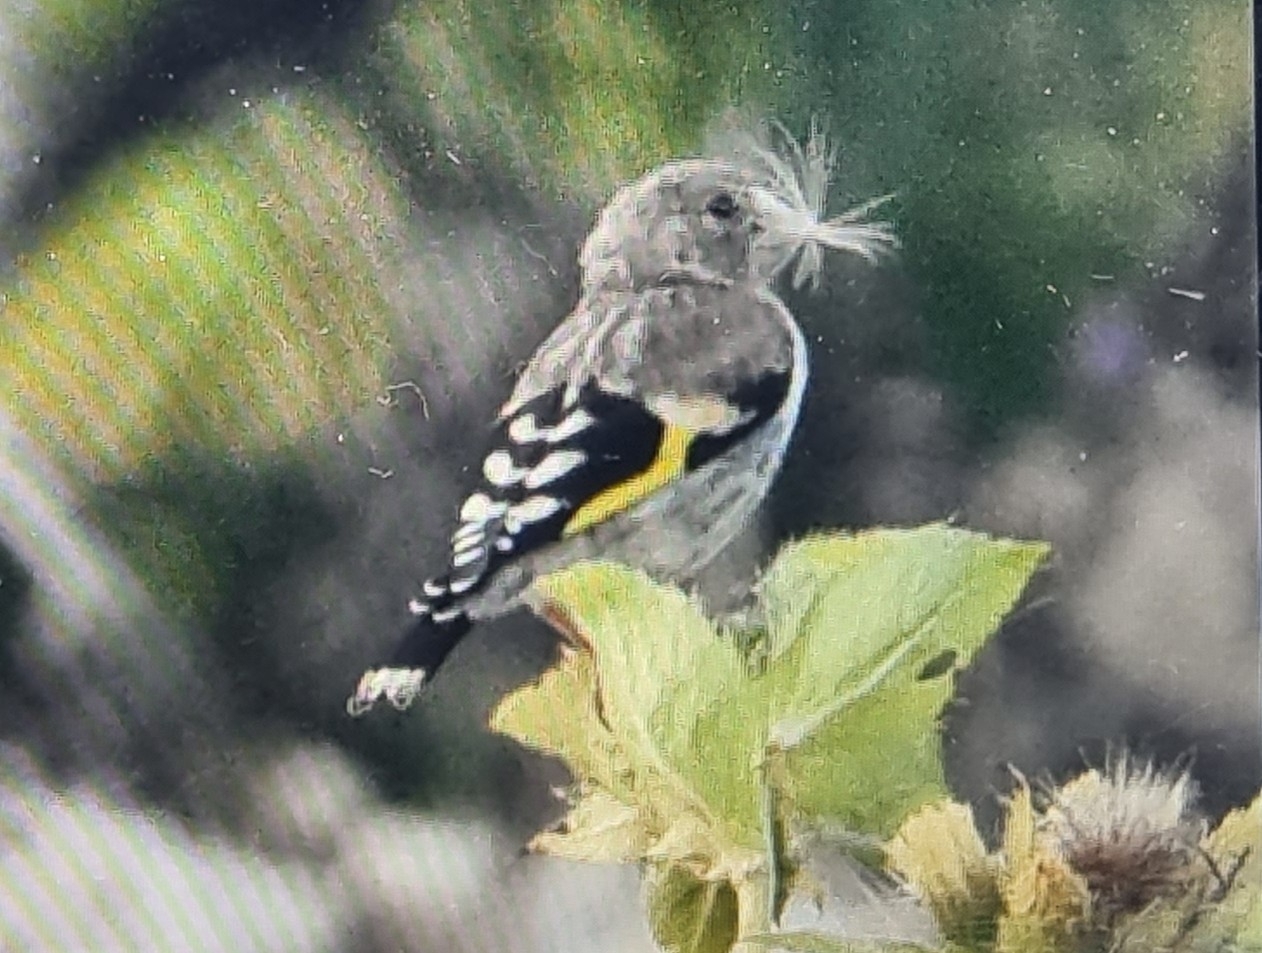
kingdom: Animalia
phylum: Chordata
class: Aves
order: Passeriformes
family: Fringillidae
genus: Carduelis
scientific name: Carduelis carduelis
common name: Stillits
